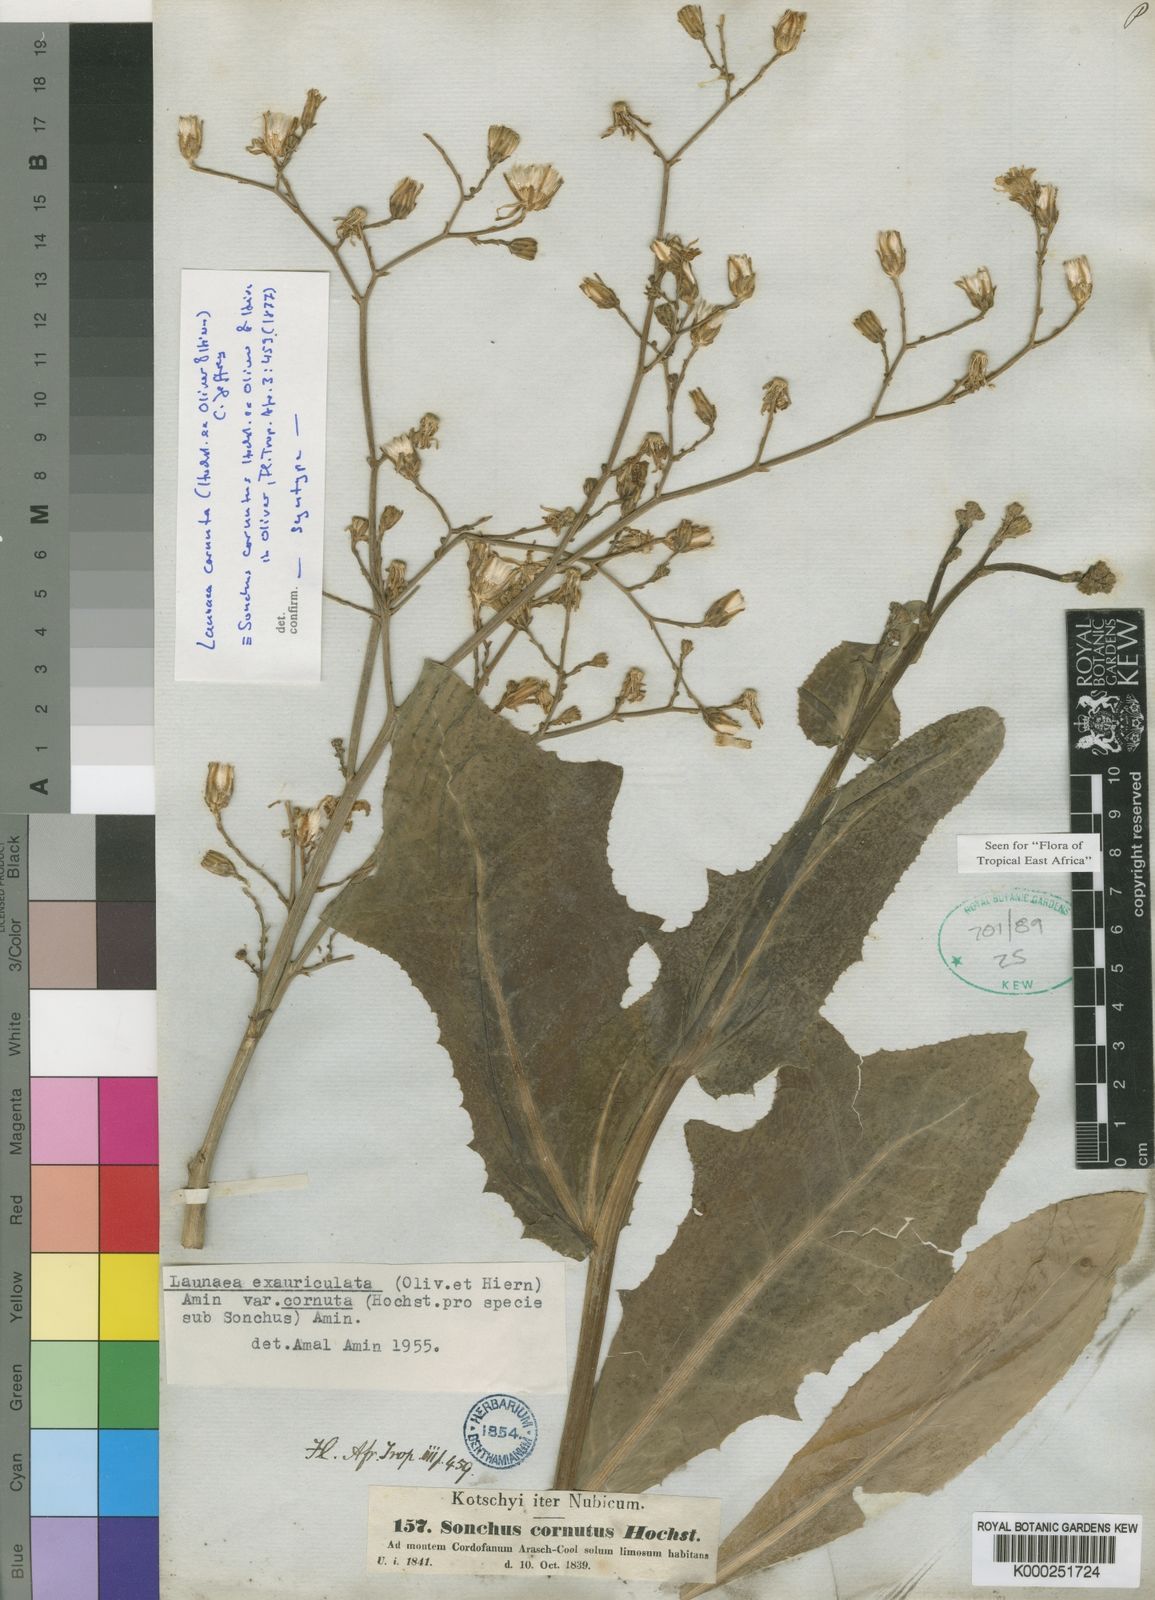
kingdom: Plantae
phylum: Tracheophyta
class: Magnoliopsida
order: Asterales
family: Asteraceae
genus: Launaea
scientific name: Launaea cornuta
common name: Bitter-lettuce
